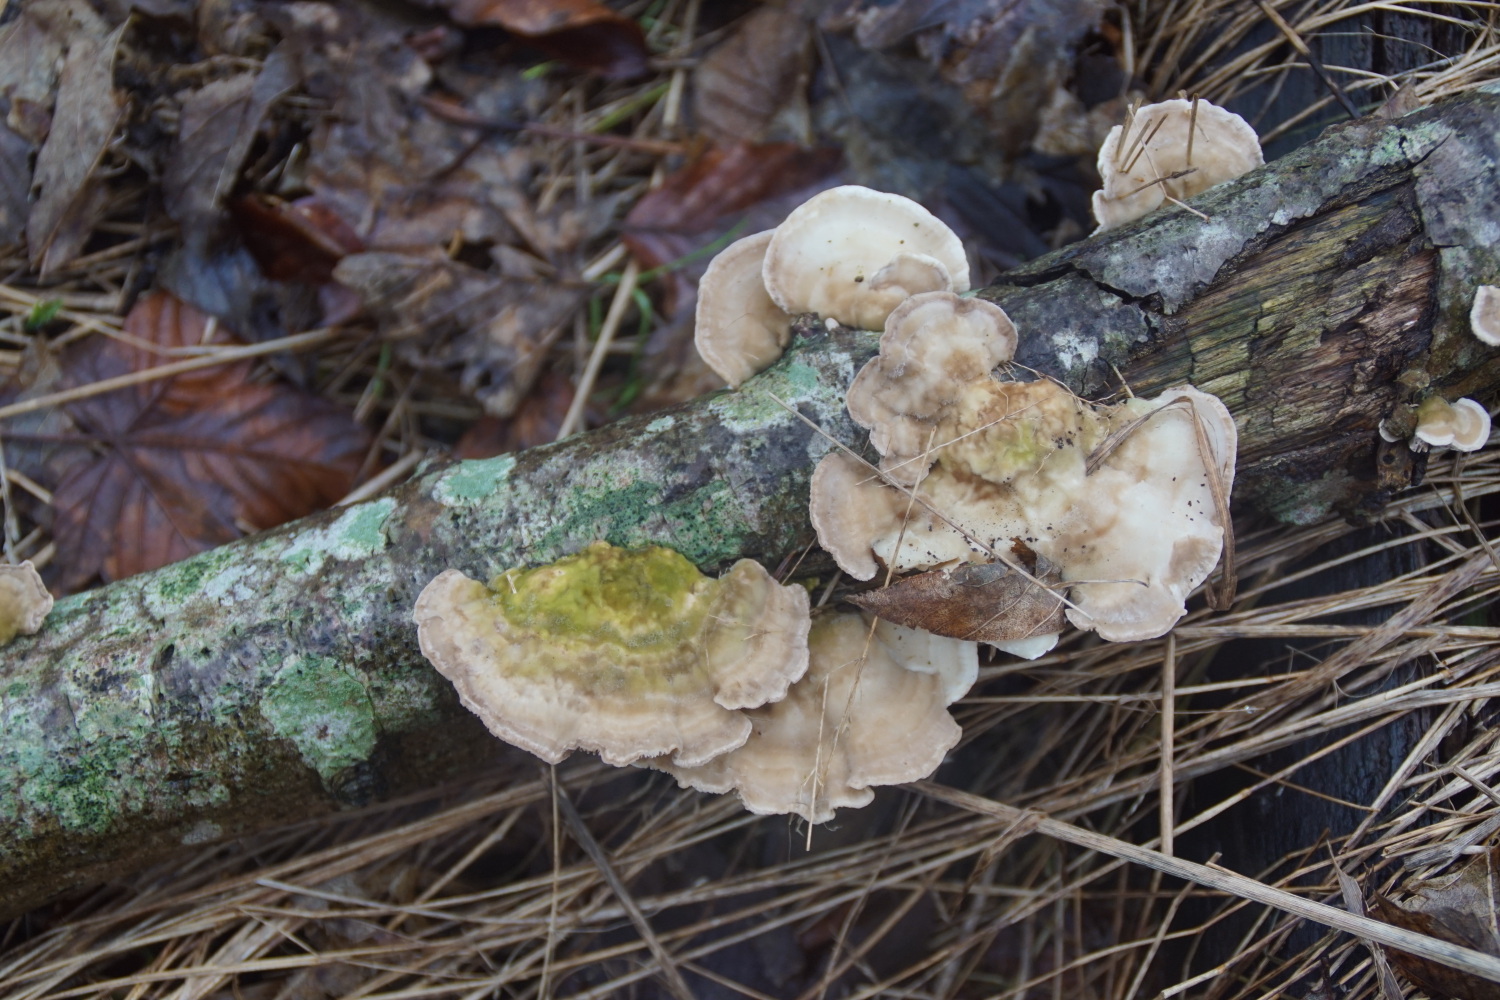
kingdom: Fungi
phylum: Basidiomycota
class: Agaricomycetes
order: Polyporales
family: Polyporaceae
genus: Lenzites
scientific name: Lenzites betulinus
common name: birke-læderporesvamp
